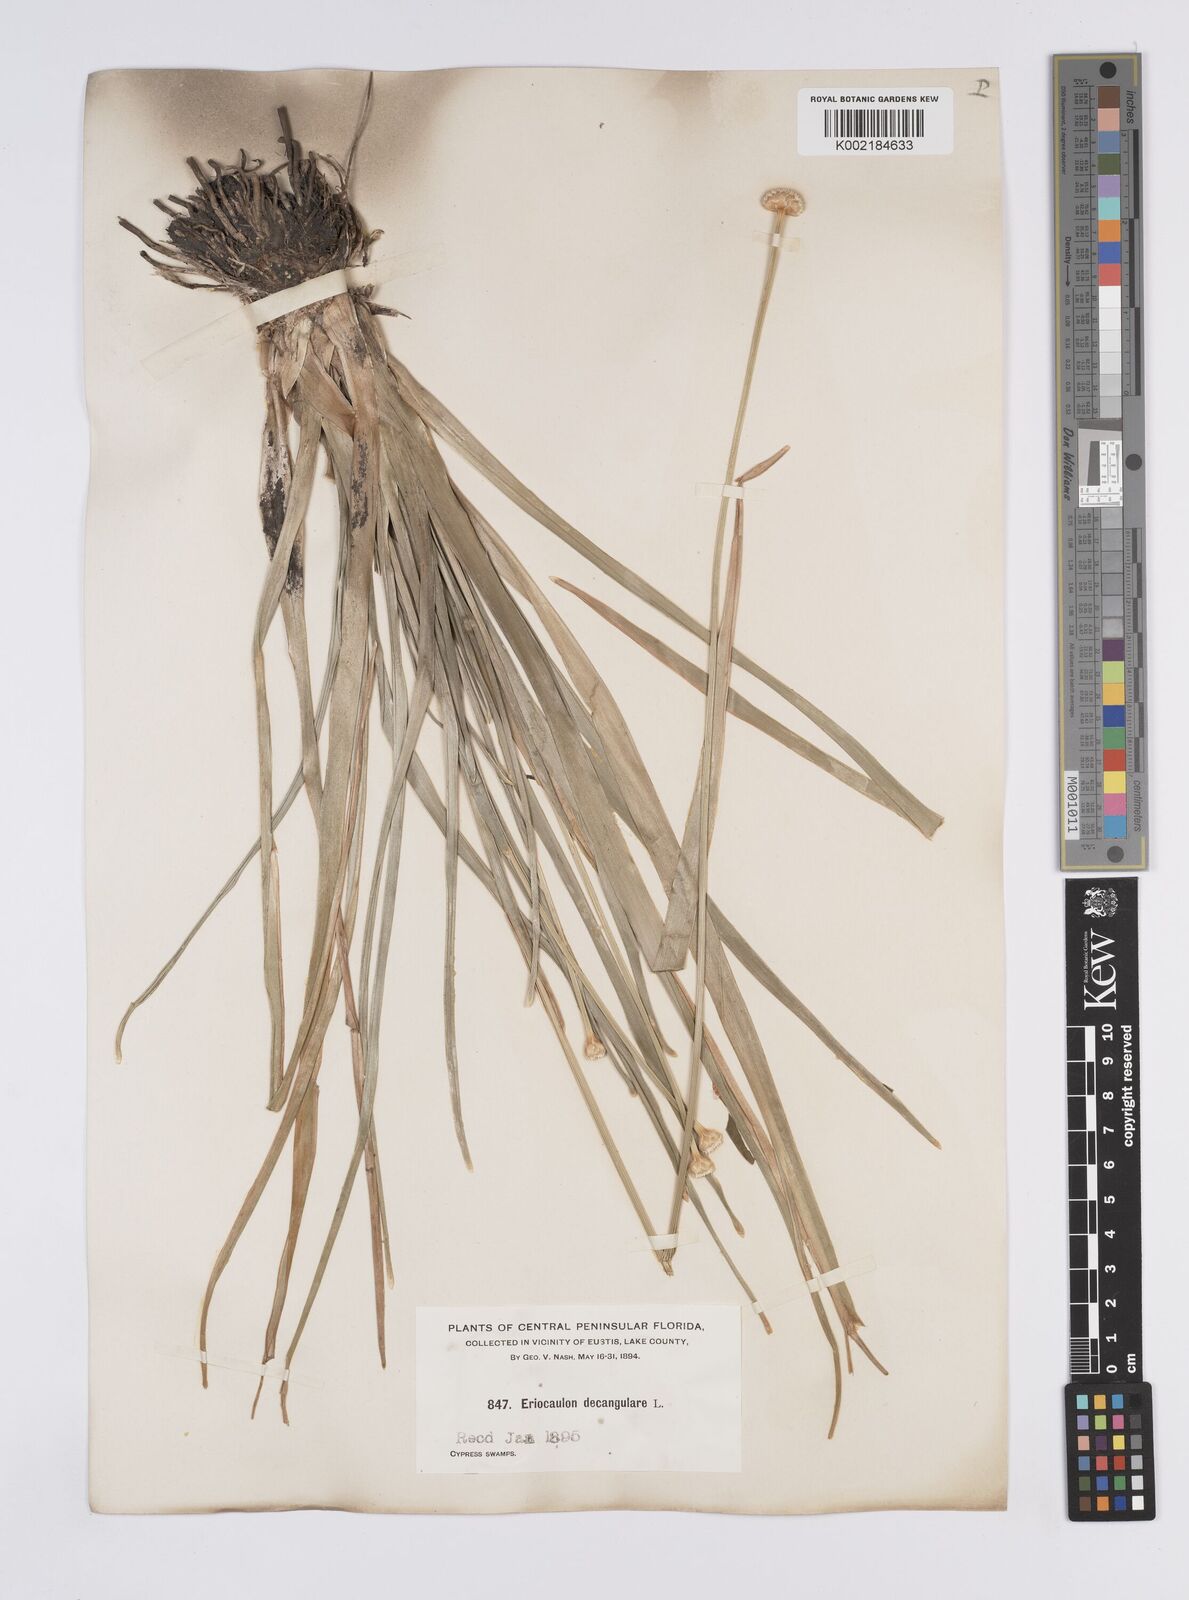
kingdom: Plantae
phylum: Tracheophyta
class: Liliopsida
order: Poales
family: Eriocaulaceae
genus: Eriocaulon
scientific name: Eriocaulon decangulare
